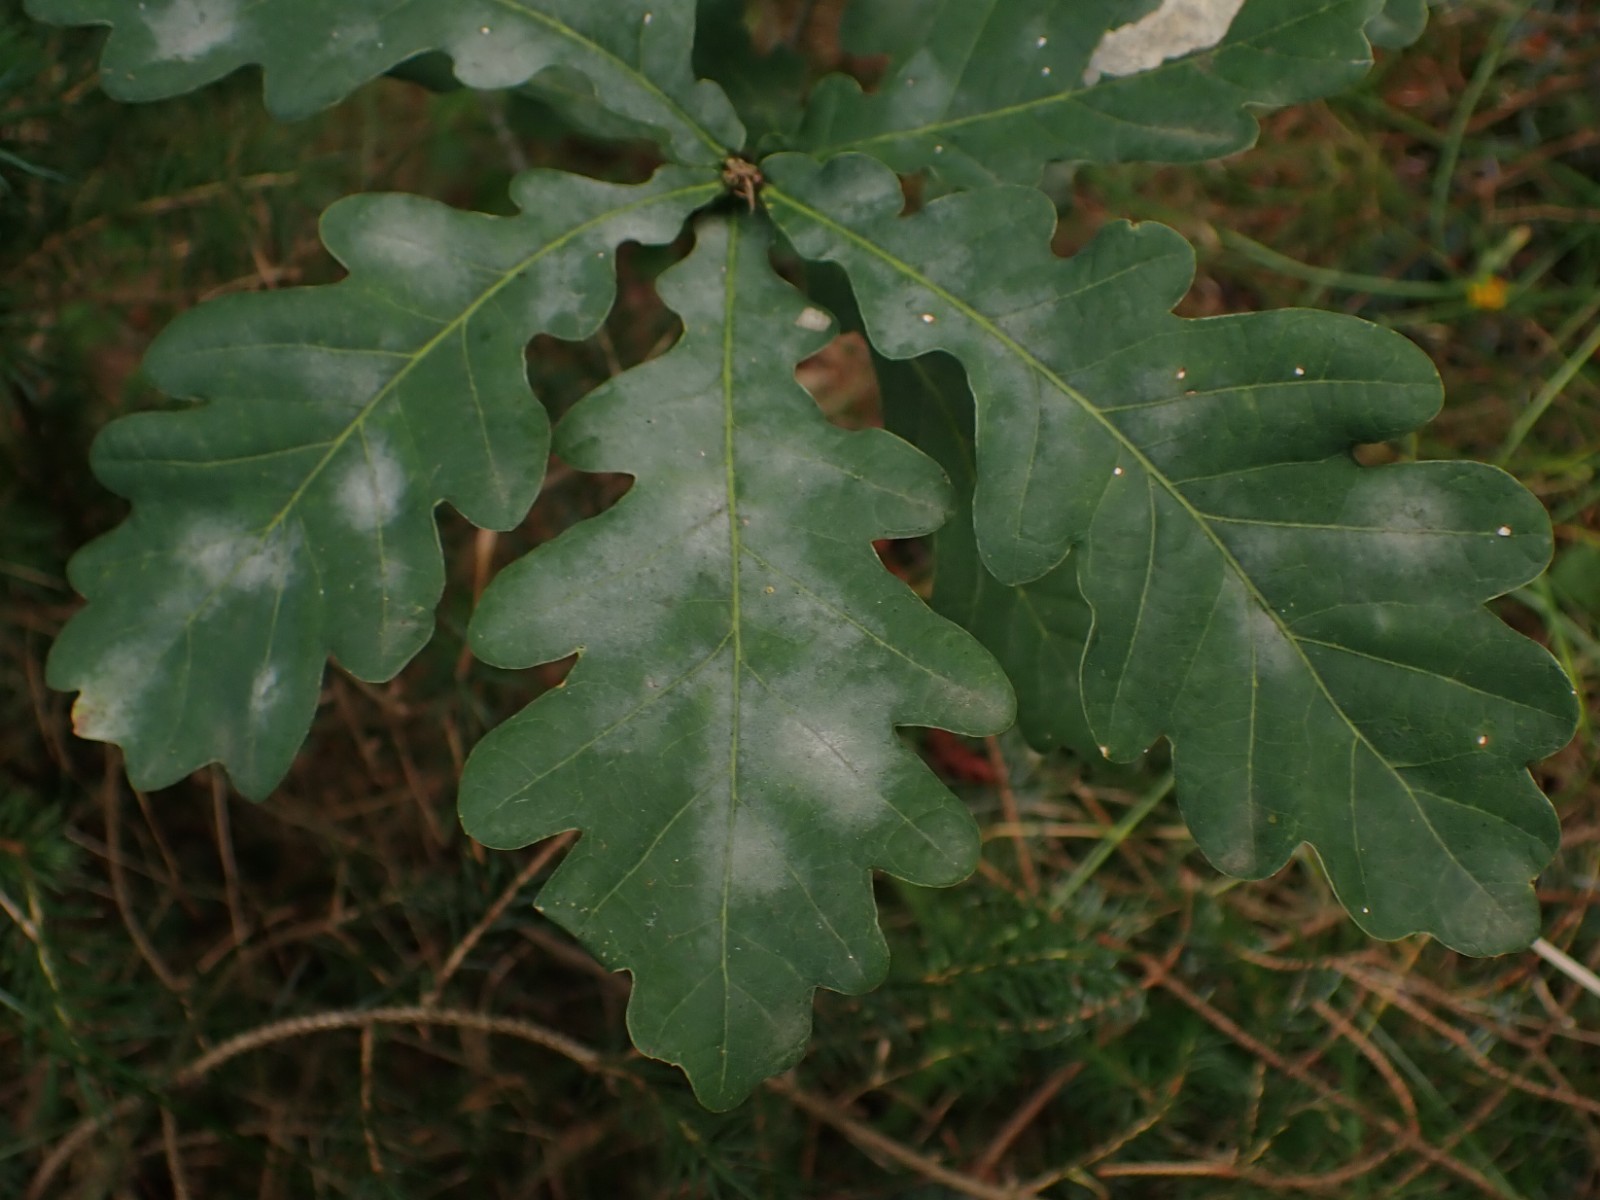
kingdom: Fungi
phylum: Ascomycota
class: Leotiomycetes
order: Helotiales
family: Erysiphaceae
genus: Erysiphe
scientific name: Erysiphe alphitoides
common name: ege-meldug
